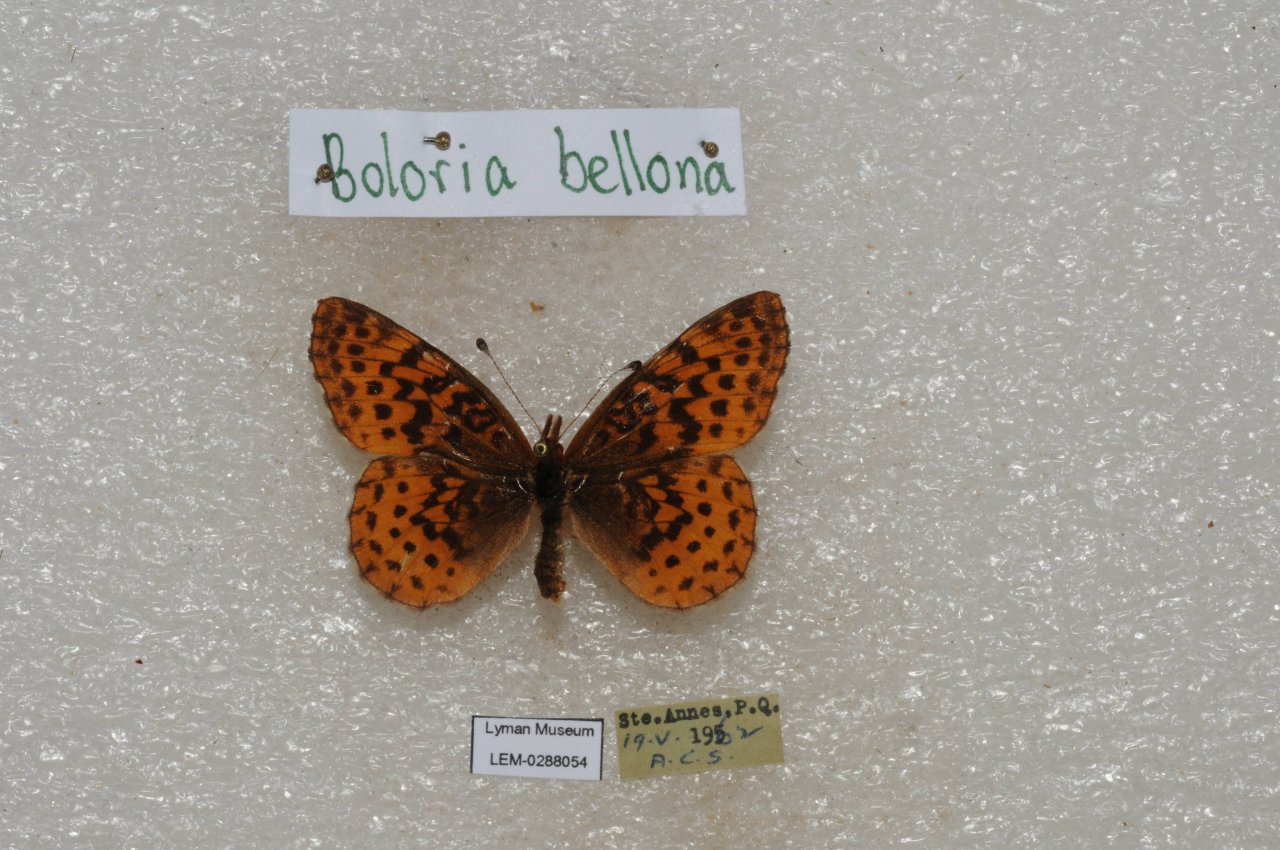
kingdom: Animalia
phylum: Arthropoda
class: Insecta
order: Lepidoptera
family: Nymphalidae
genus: Clossiana
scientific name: Clossiana toddi
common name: Meadow Fritillary
